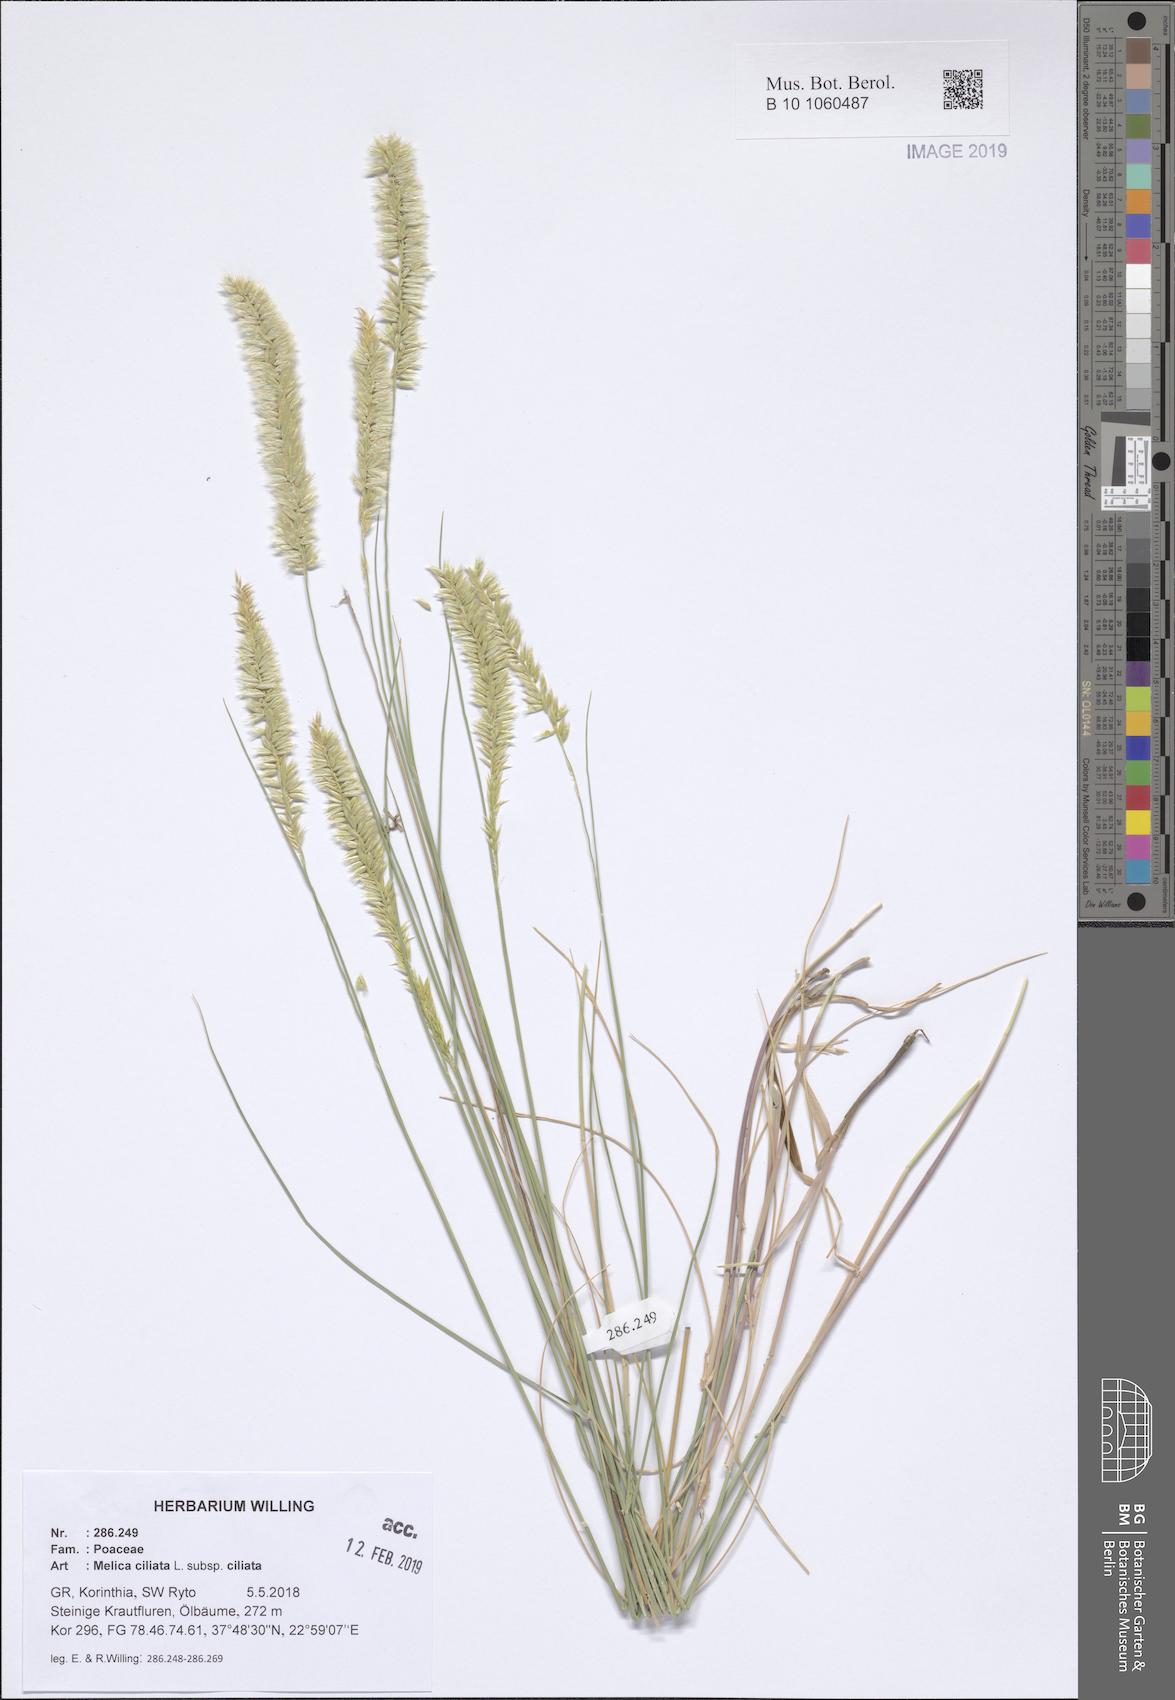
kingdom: Plantae
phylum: Tracheophyta
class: Liliopsida
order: Poales
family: Poaceae
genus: Melica
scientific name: Melica ciliata
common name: Hairy melicgrass
